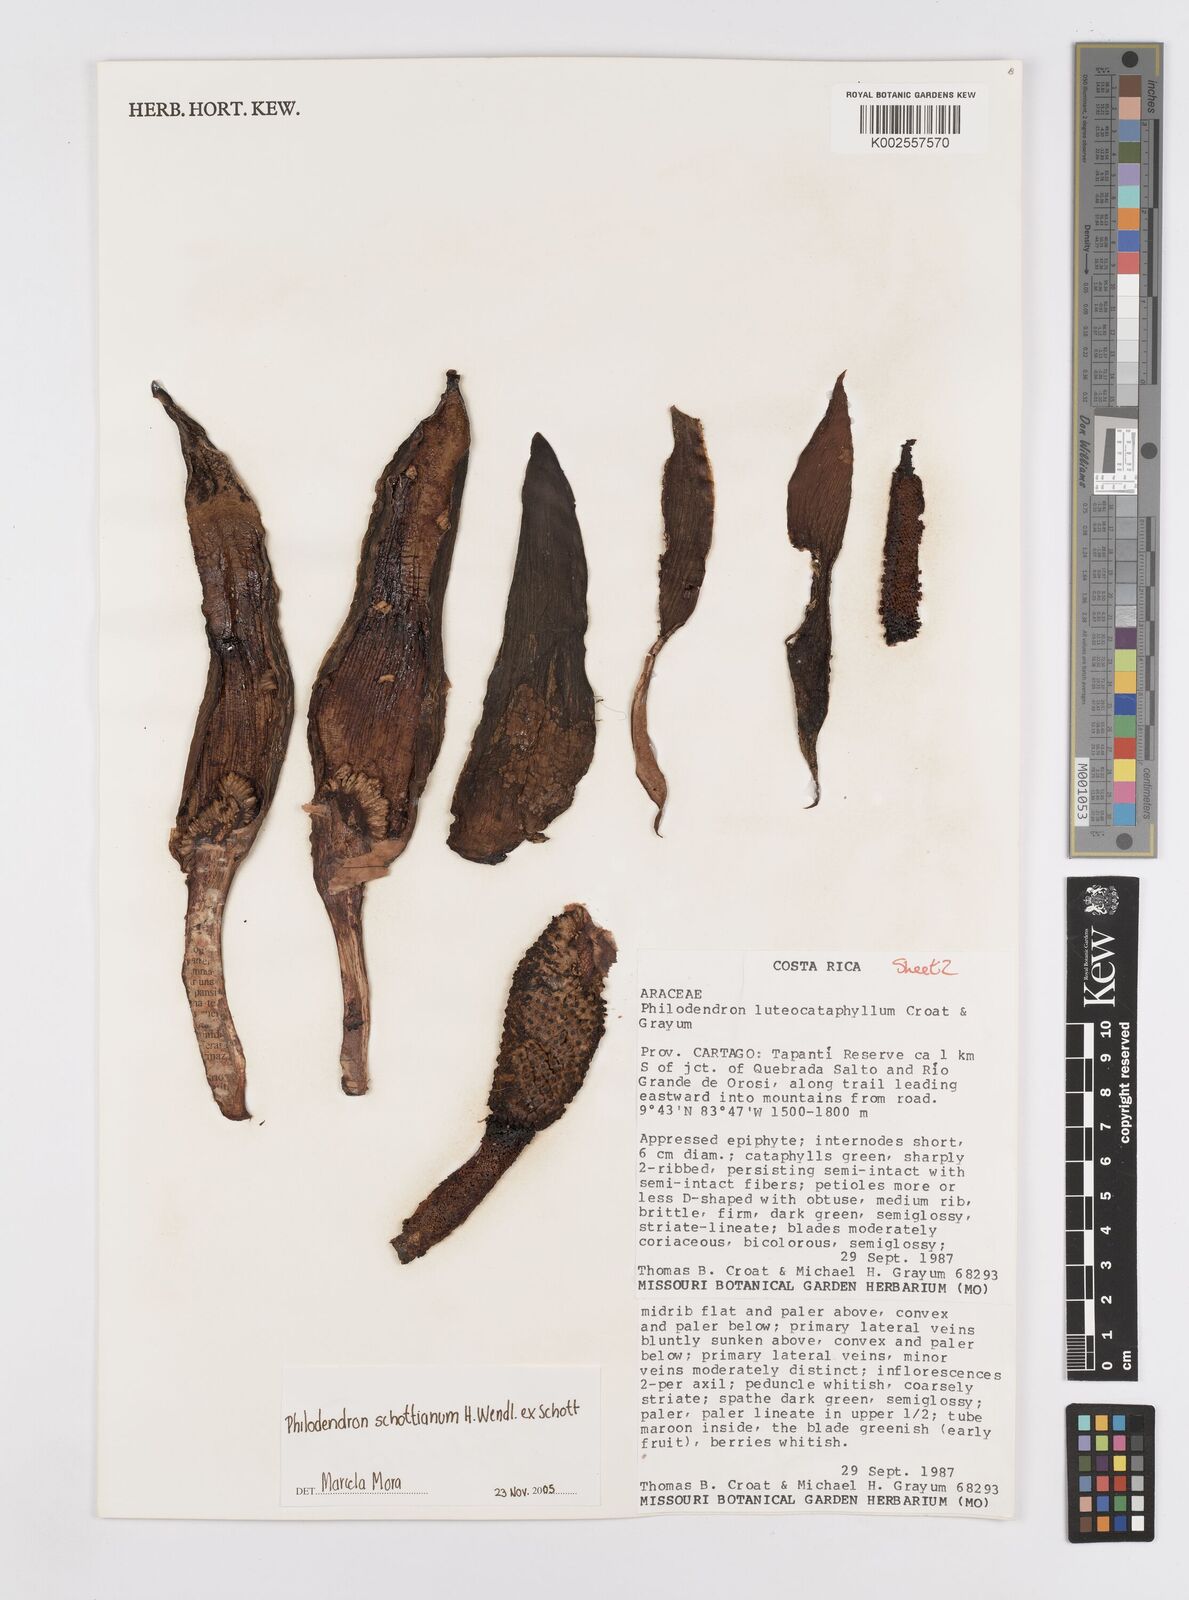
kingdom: Plantae
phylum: Tracheophyta
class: Liliopsida
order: Alismatales
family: Araceae
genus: Philodendron
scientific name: Philodendron schottianum
